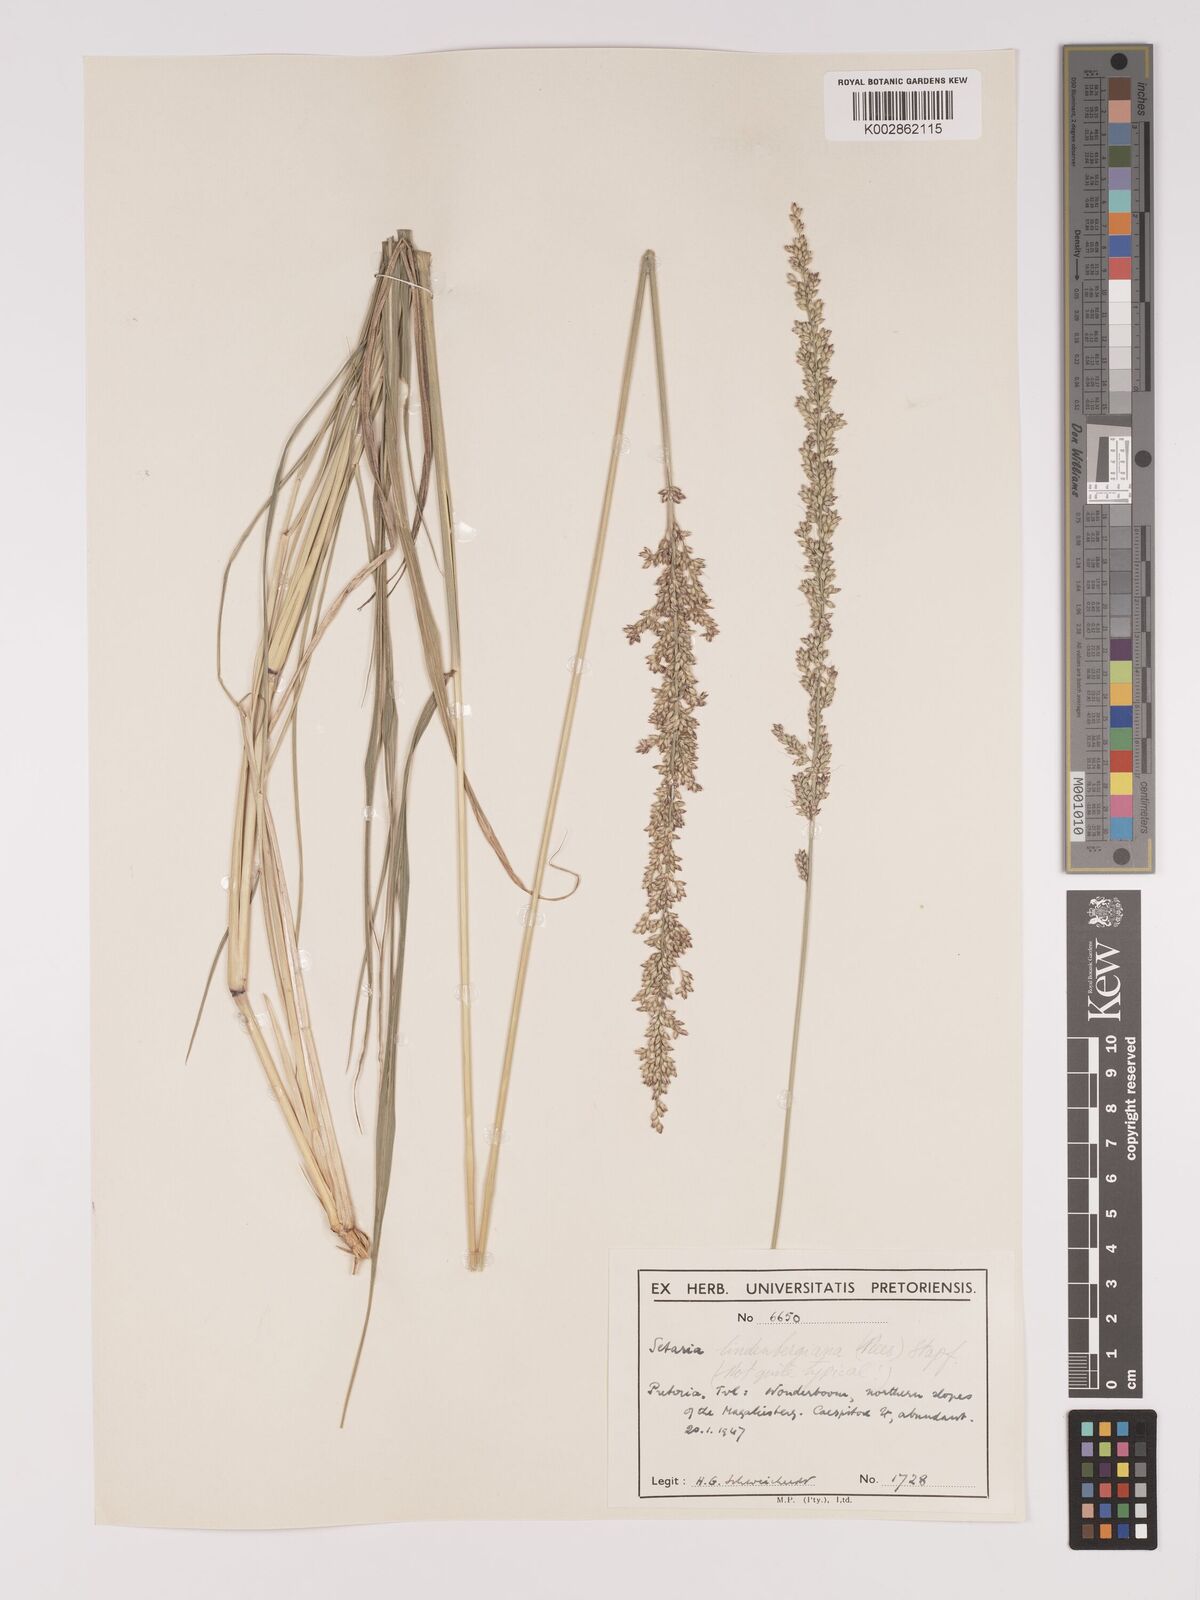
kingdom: Plantae
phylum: Tracheophyta
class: Liliopsida
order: Poales
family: Poaceae
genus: Setaria
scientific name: Setaria lindenbergiana
